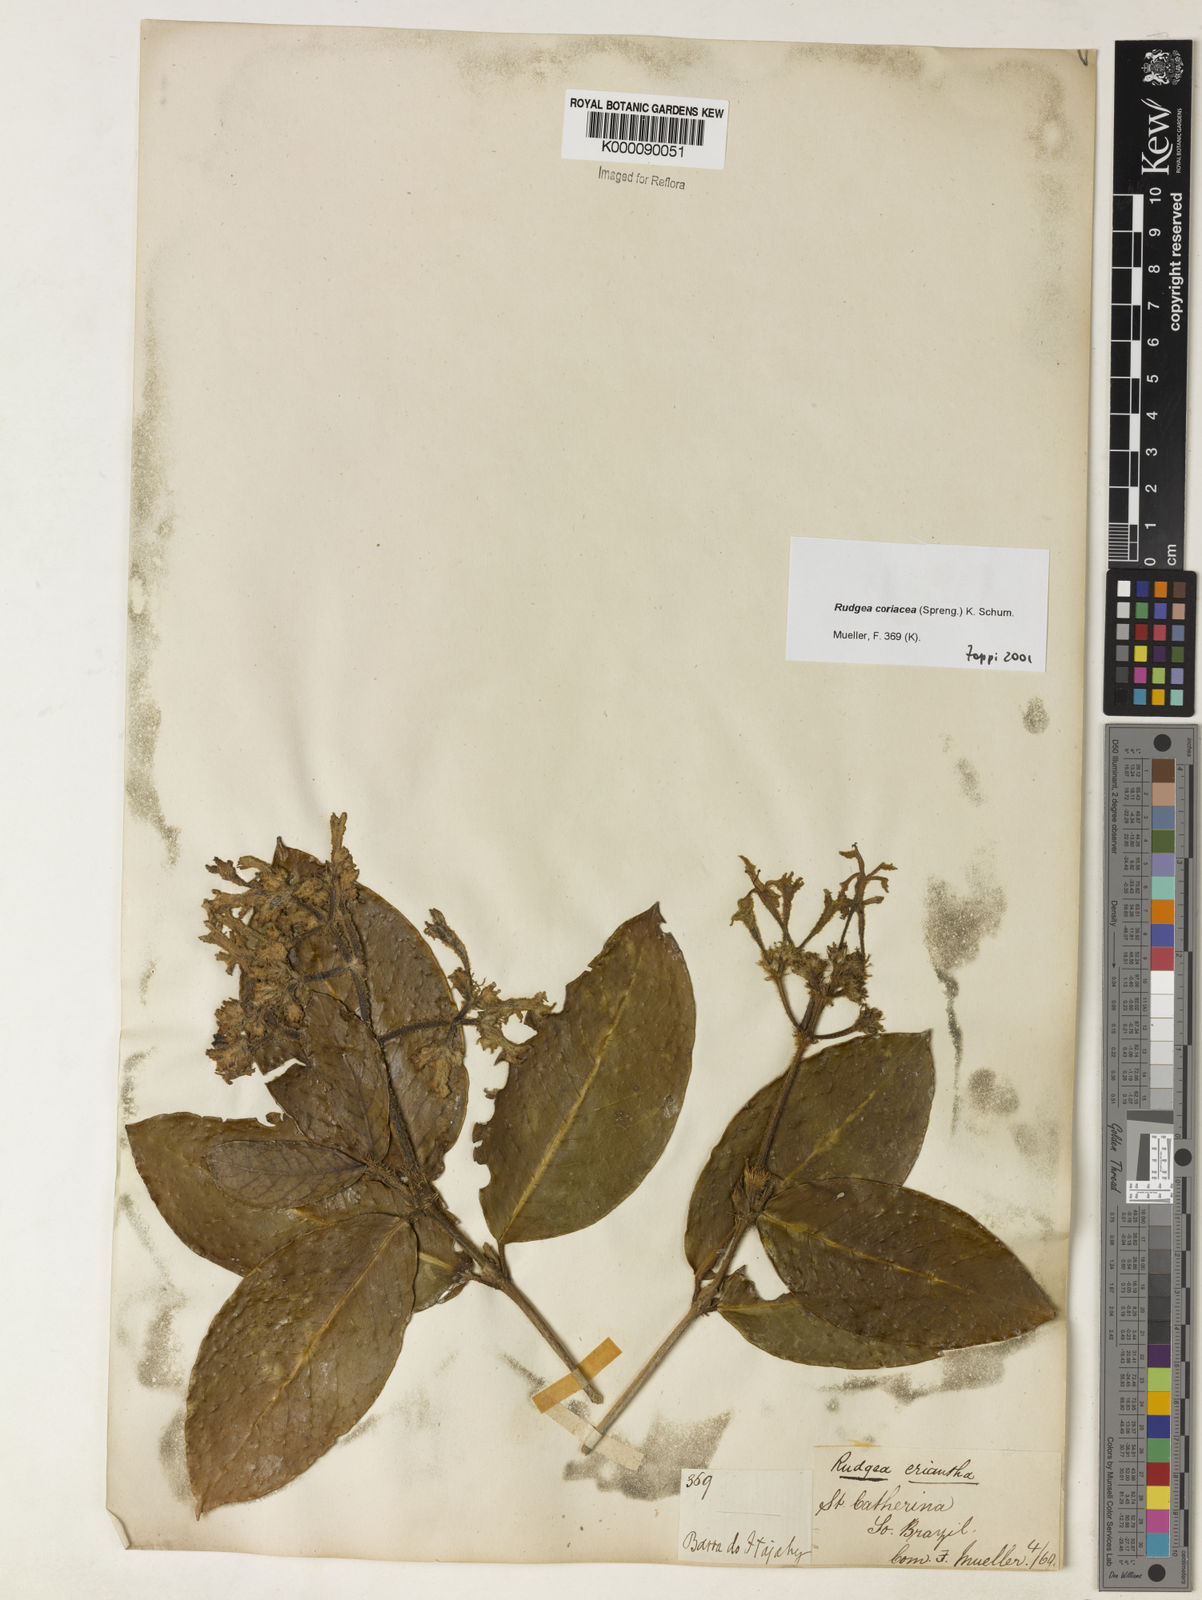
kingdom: Plantae
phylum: Tracheophyta
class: Magnoliopsida
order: Gentianales
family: Rubiaceae
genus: Rudgea
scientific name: Rudgea coriacea
